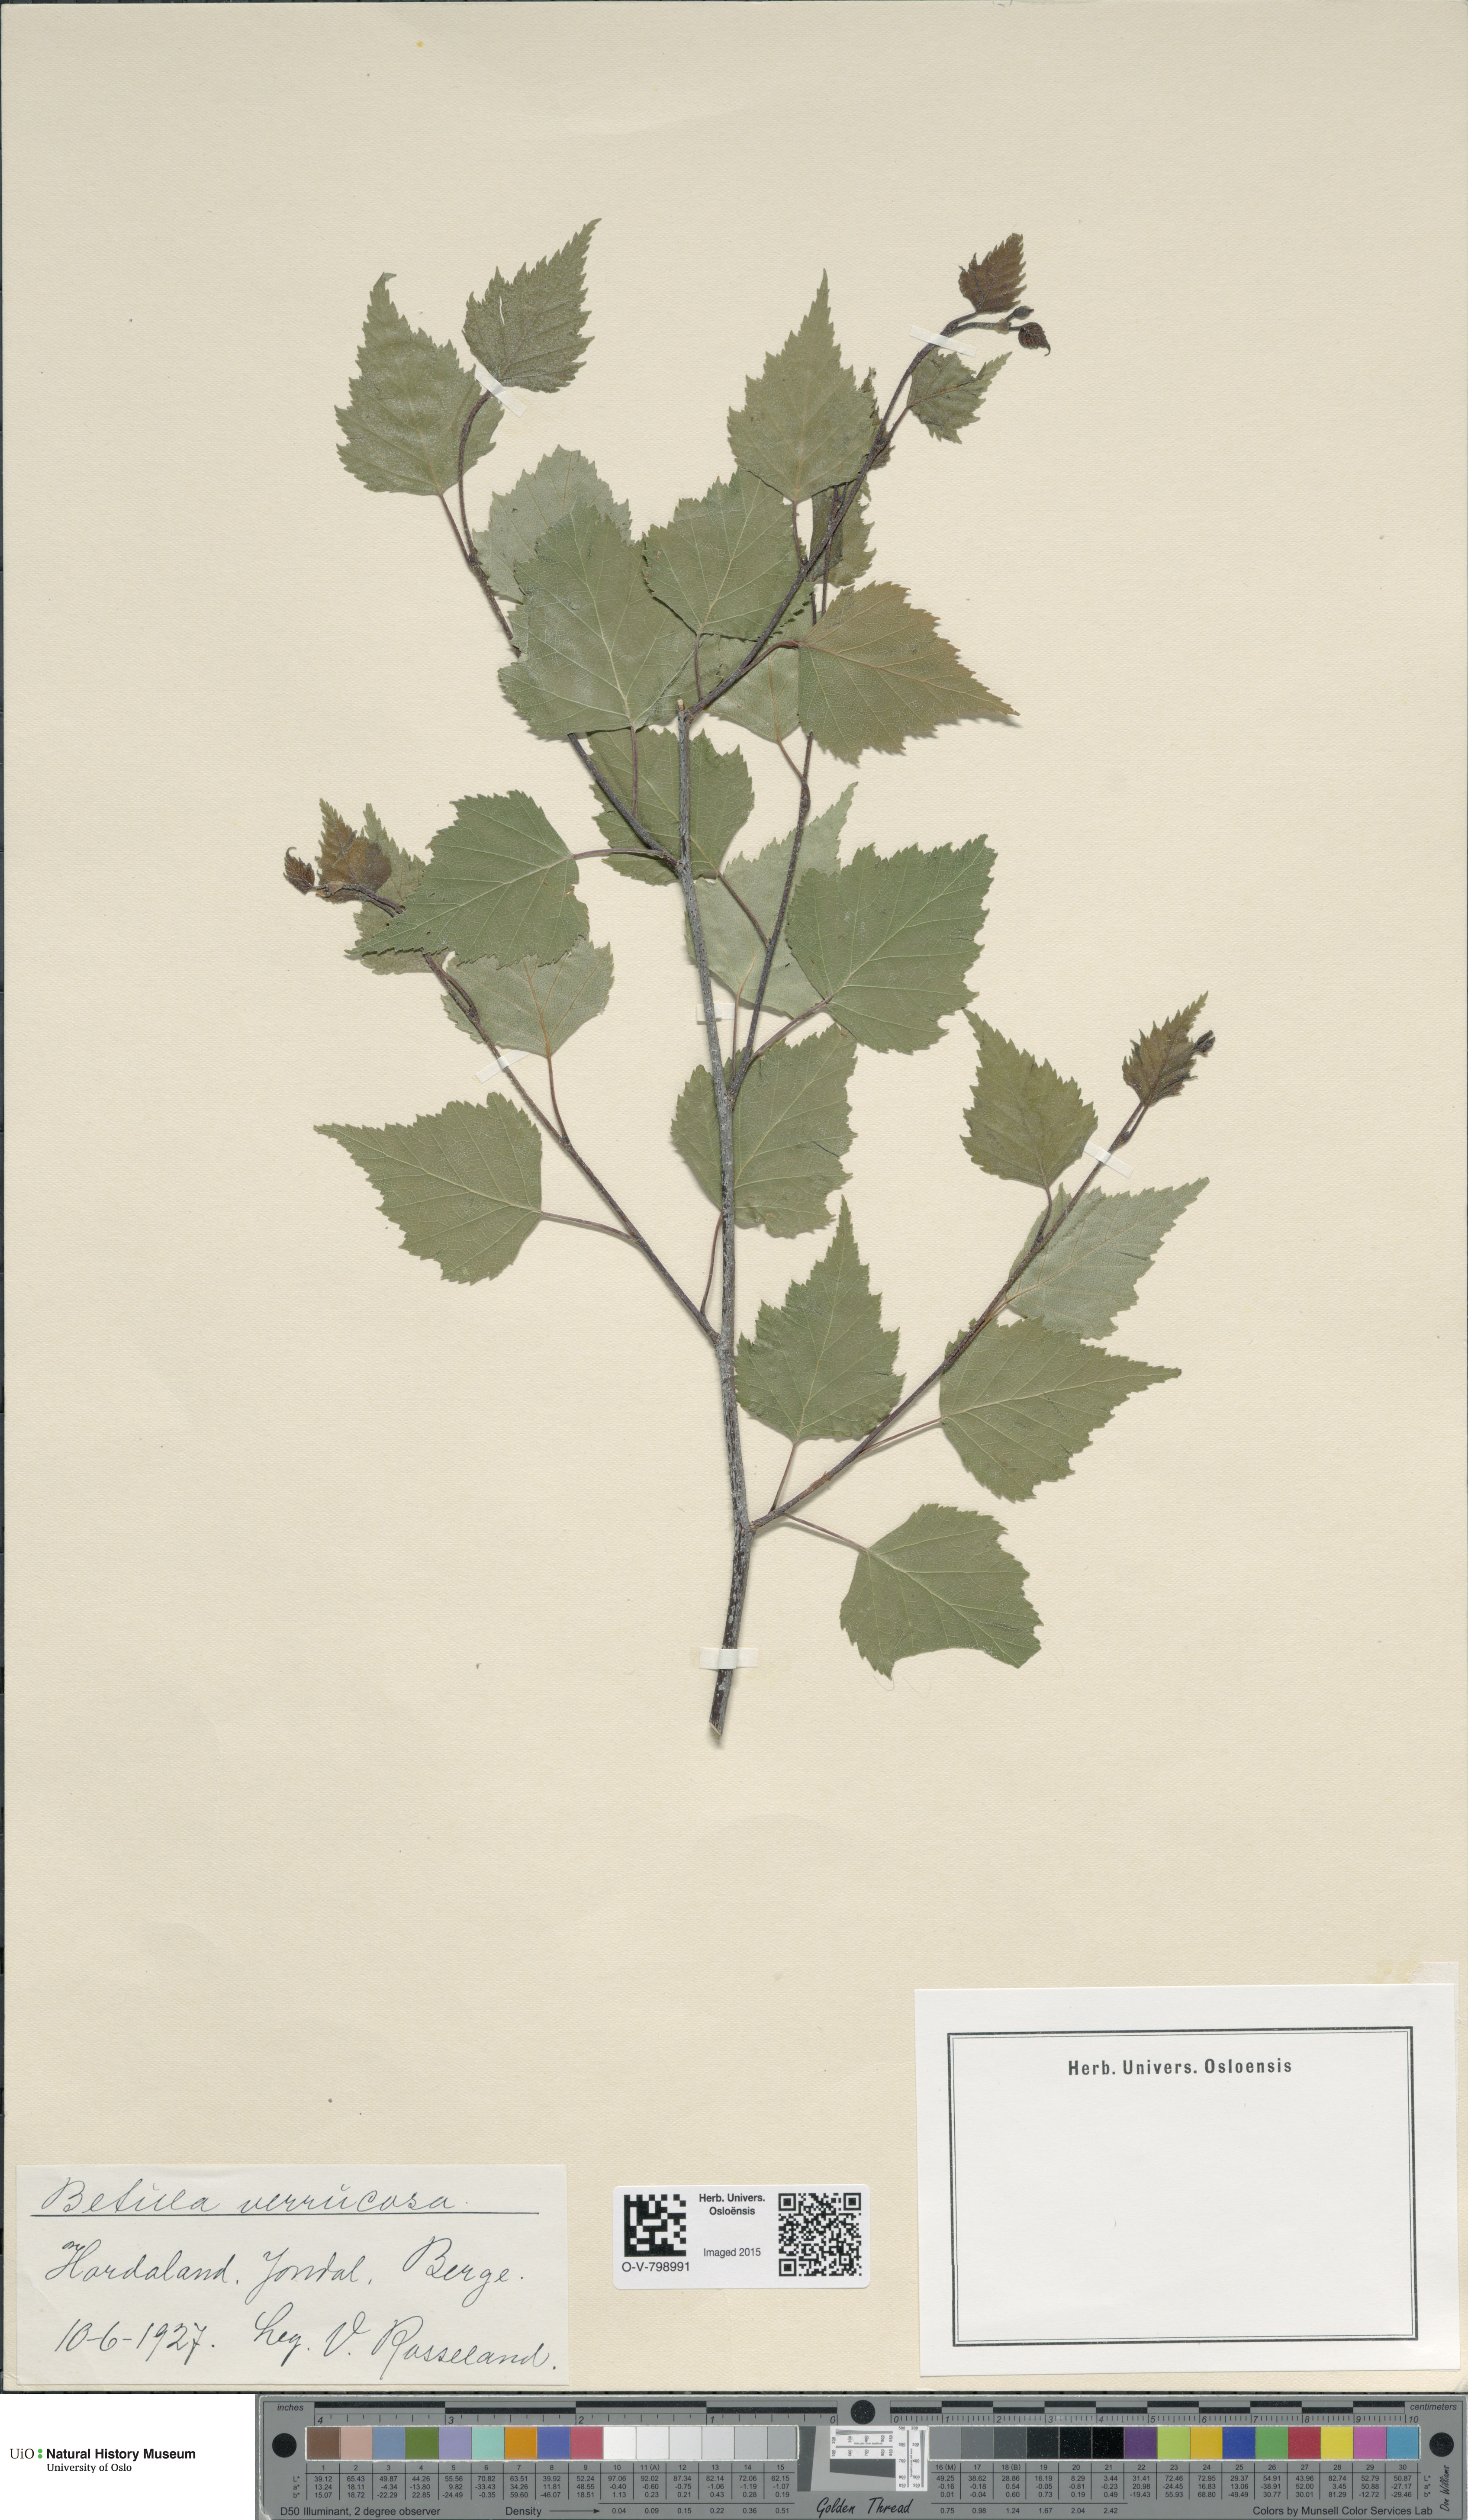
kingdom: Plantae
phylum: Tracheophyta
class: Magnoliopsida
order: Fagales
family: Betulaceae
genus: Betula
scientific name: Betula pendula
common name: Silver birch
